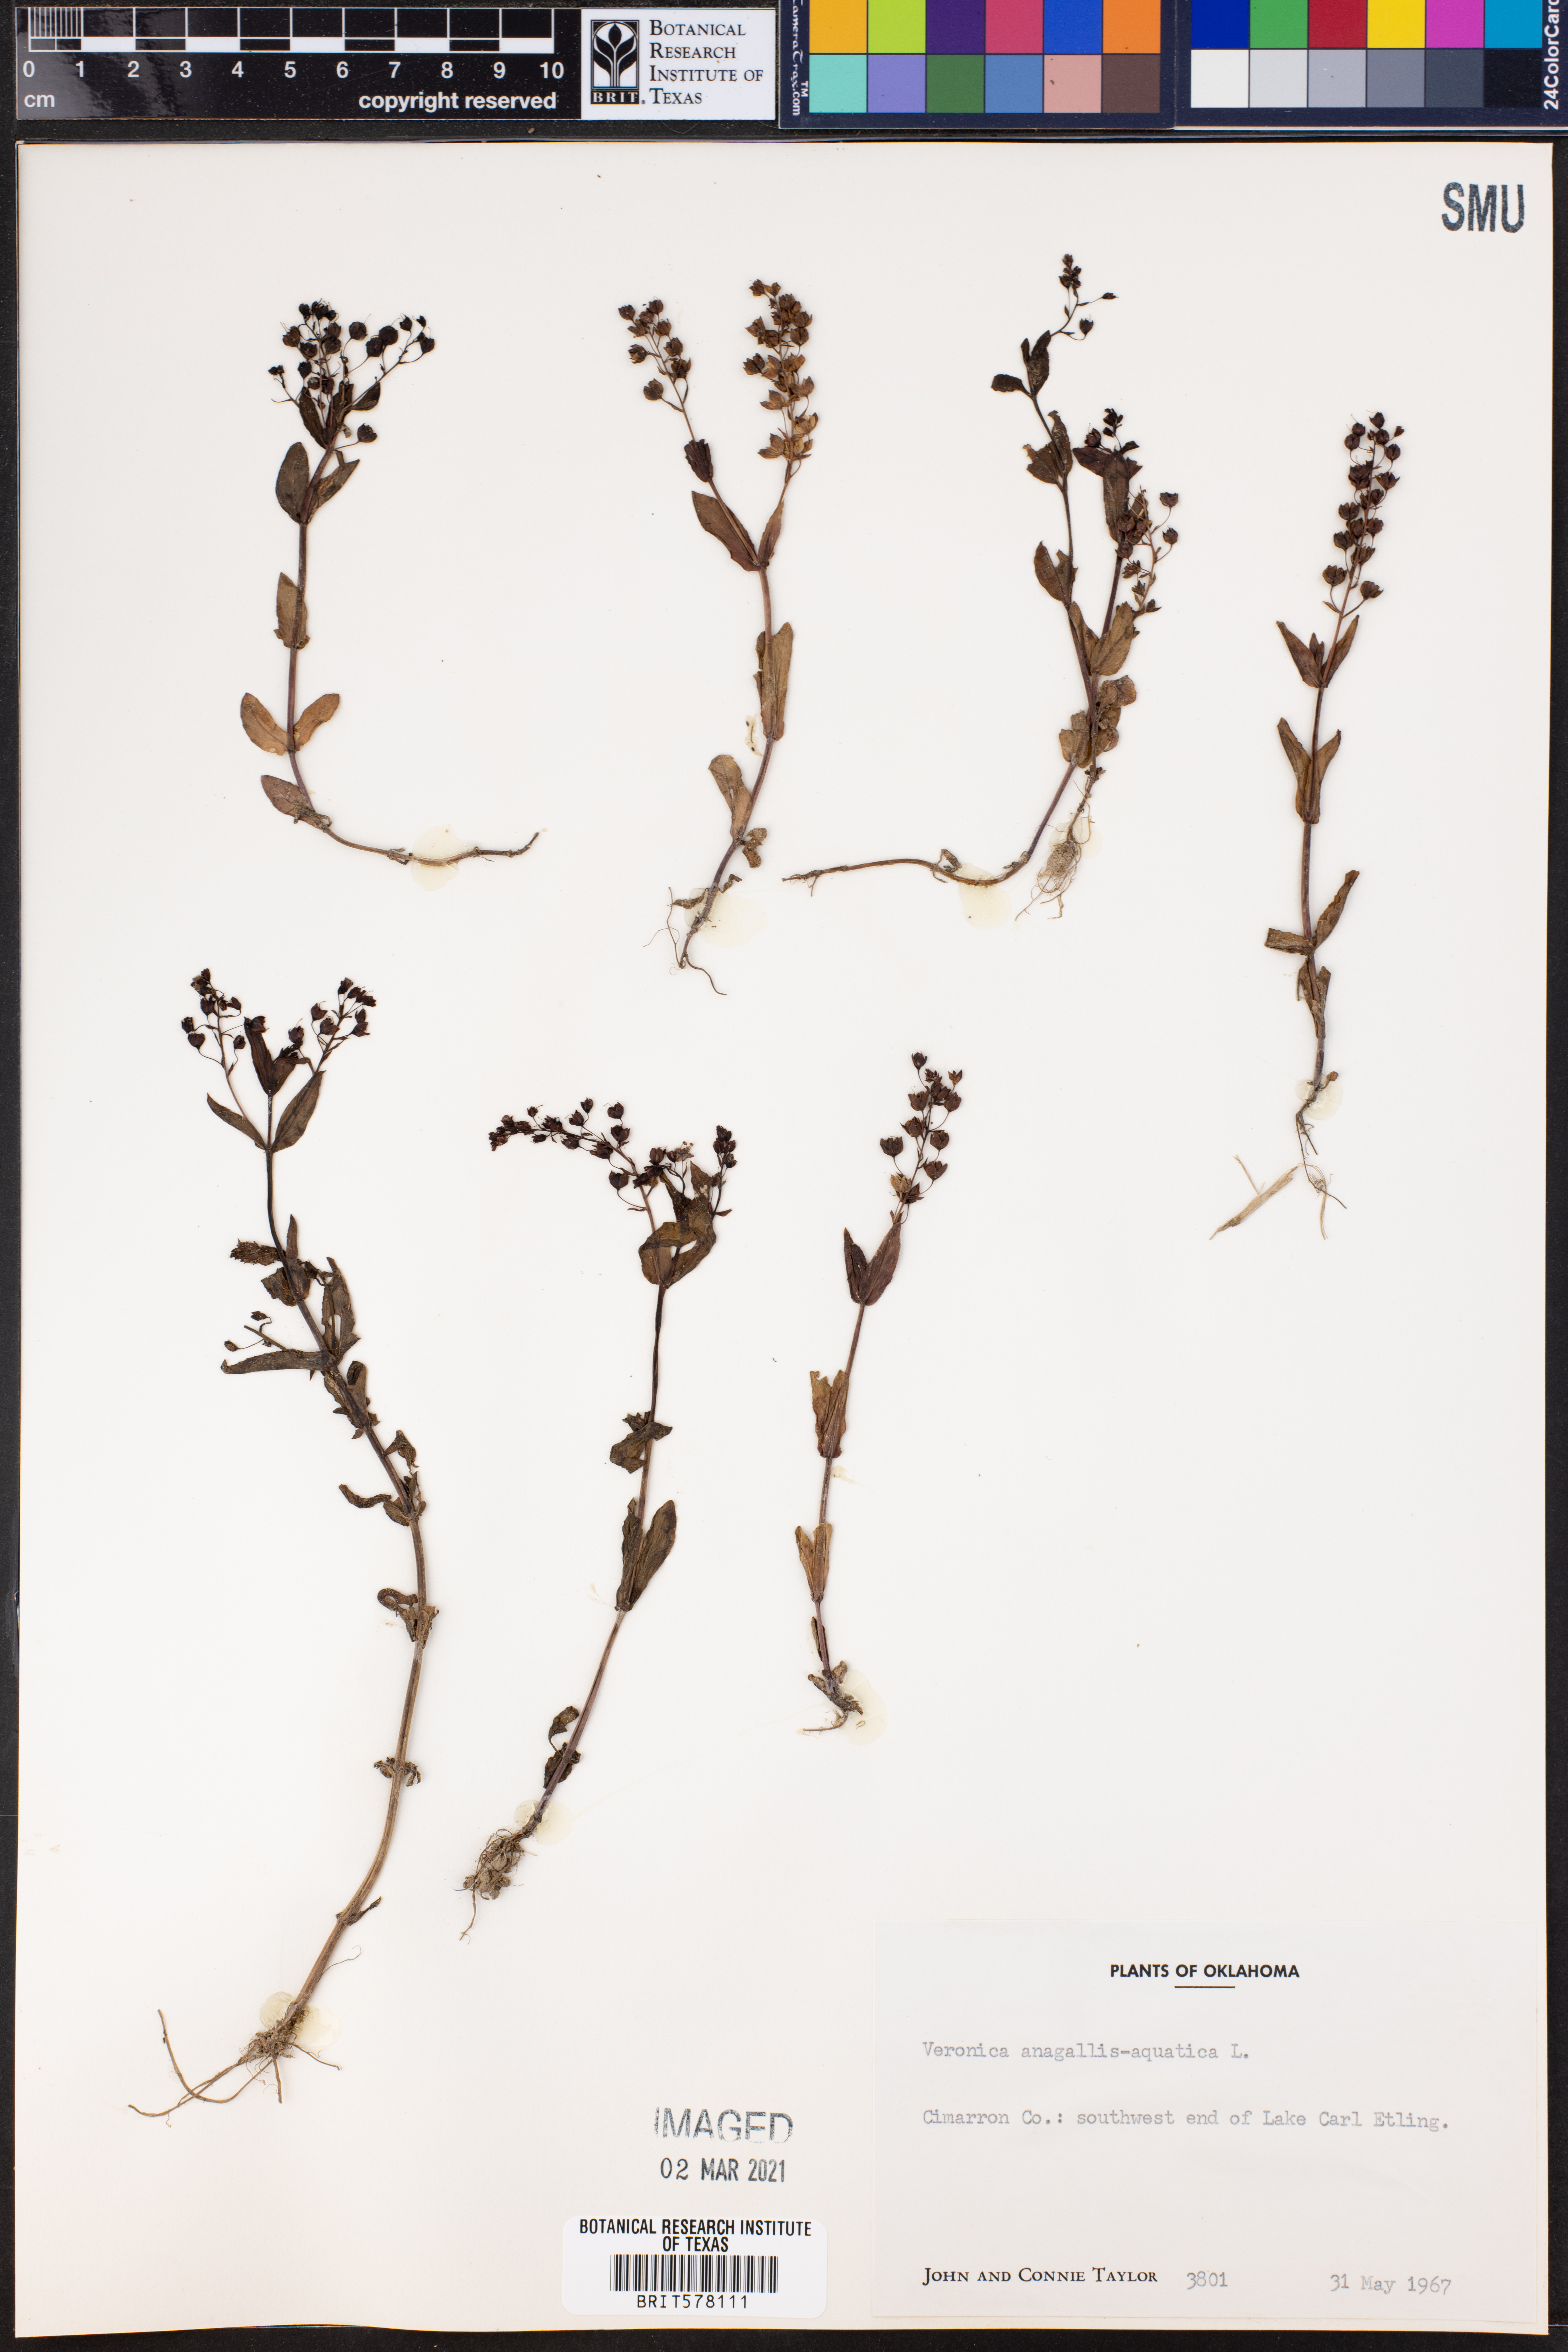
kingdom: Plantae
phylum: Tracheophyta
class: Magnoliopsida
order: Lamiales
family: Plantaginaceae
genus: Veronica
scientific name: Veronica anagallis-aquatica
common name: Water speedwell
